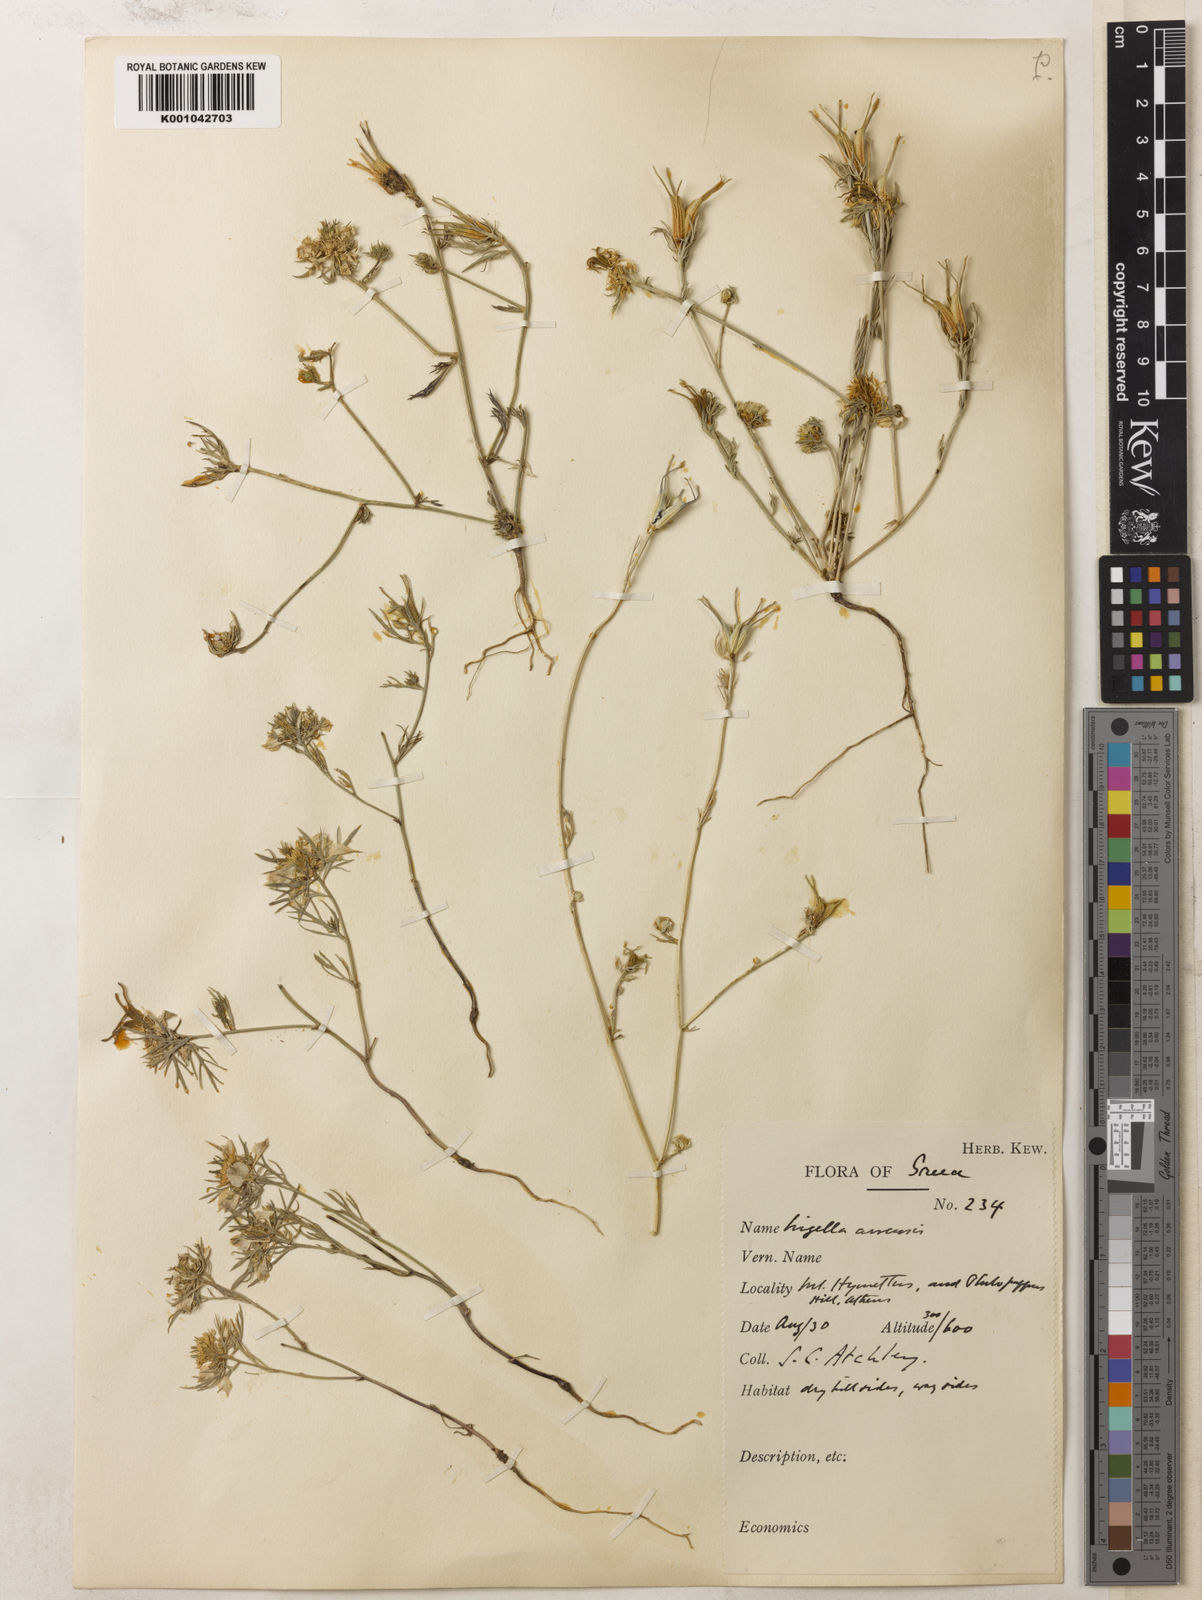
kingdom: Plantae
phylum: Tracheophyta
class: Magnoliopsida
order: Ranunculales
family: Ranunculaceae
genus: Nigella
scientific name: Nigella arvensis
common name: Wild fennel-flower
